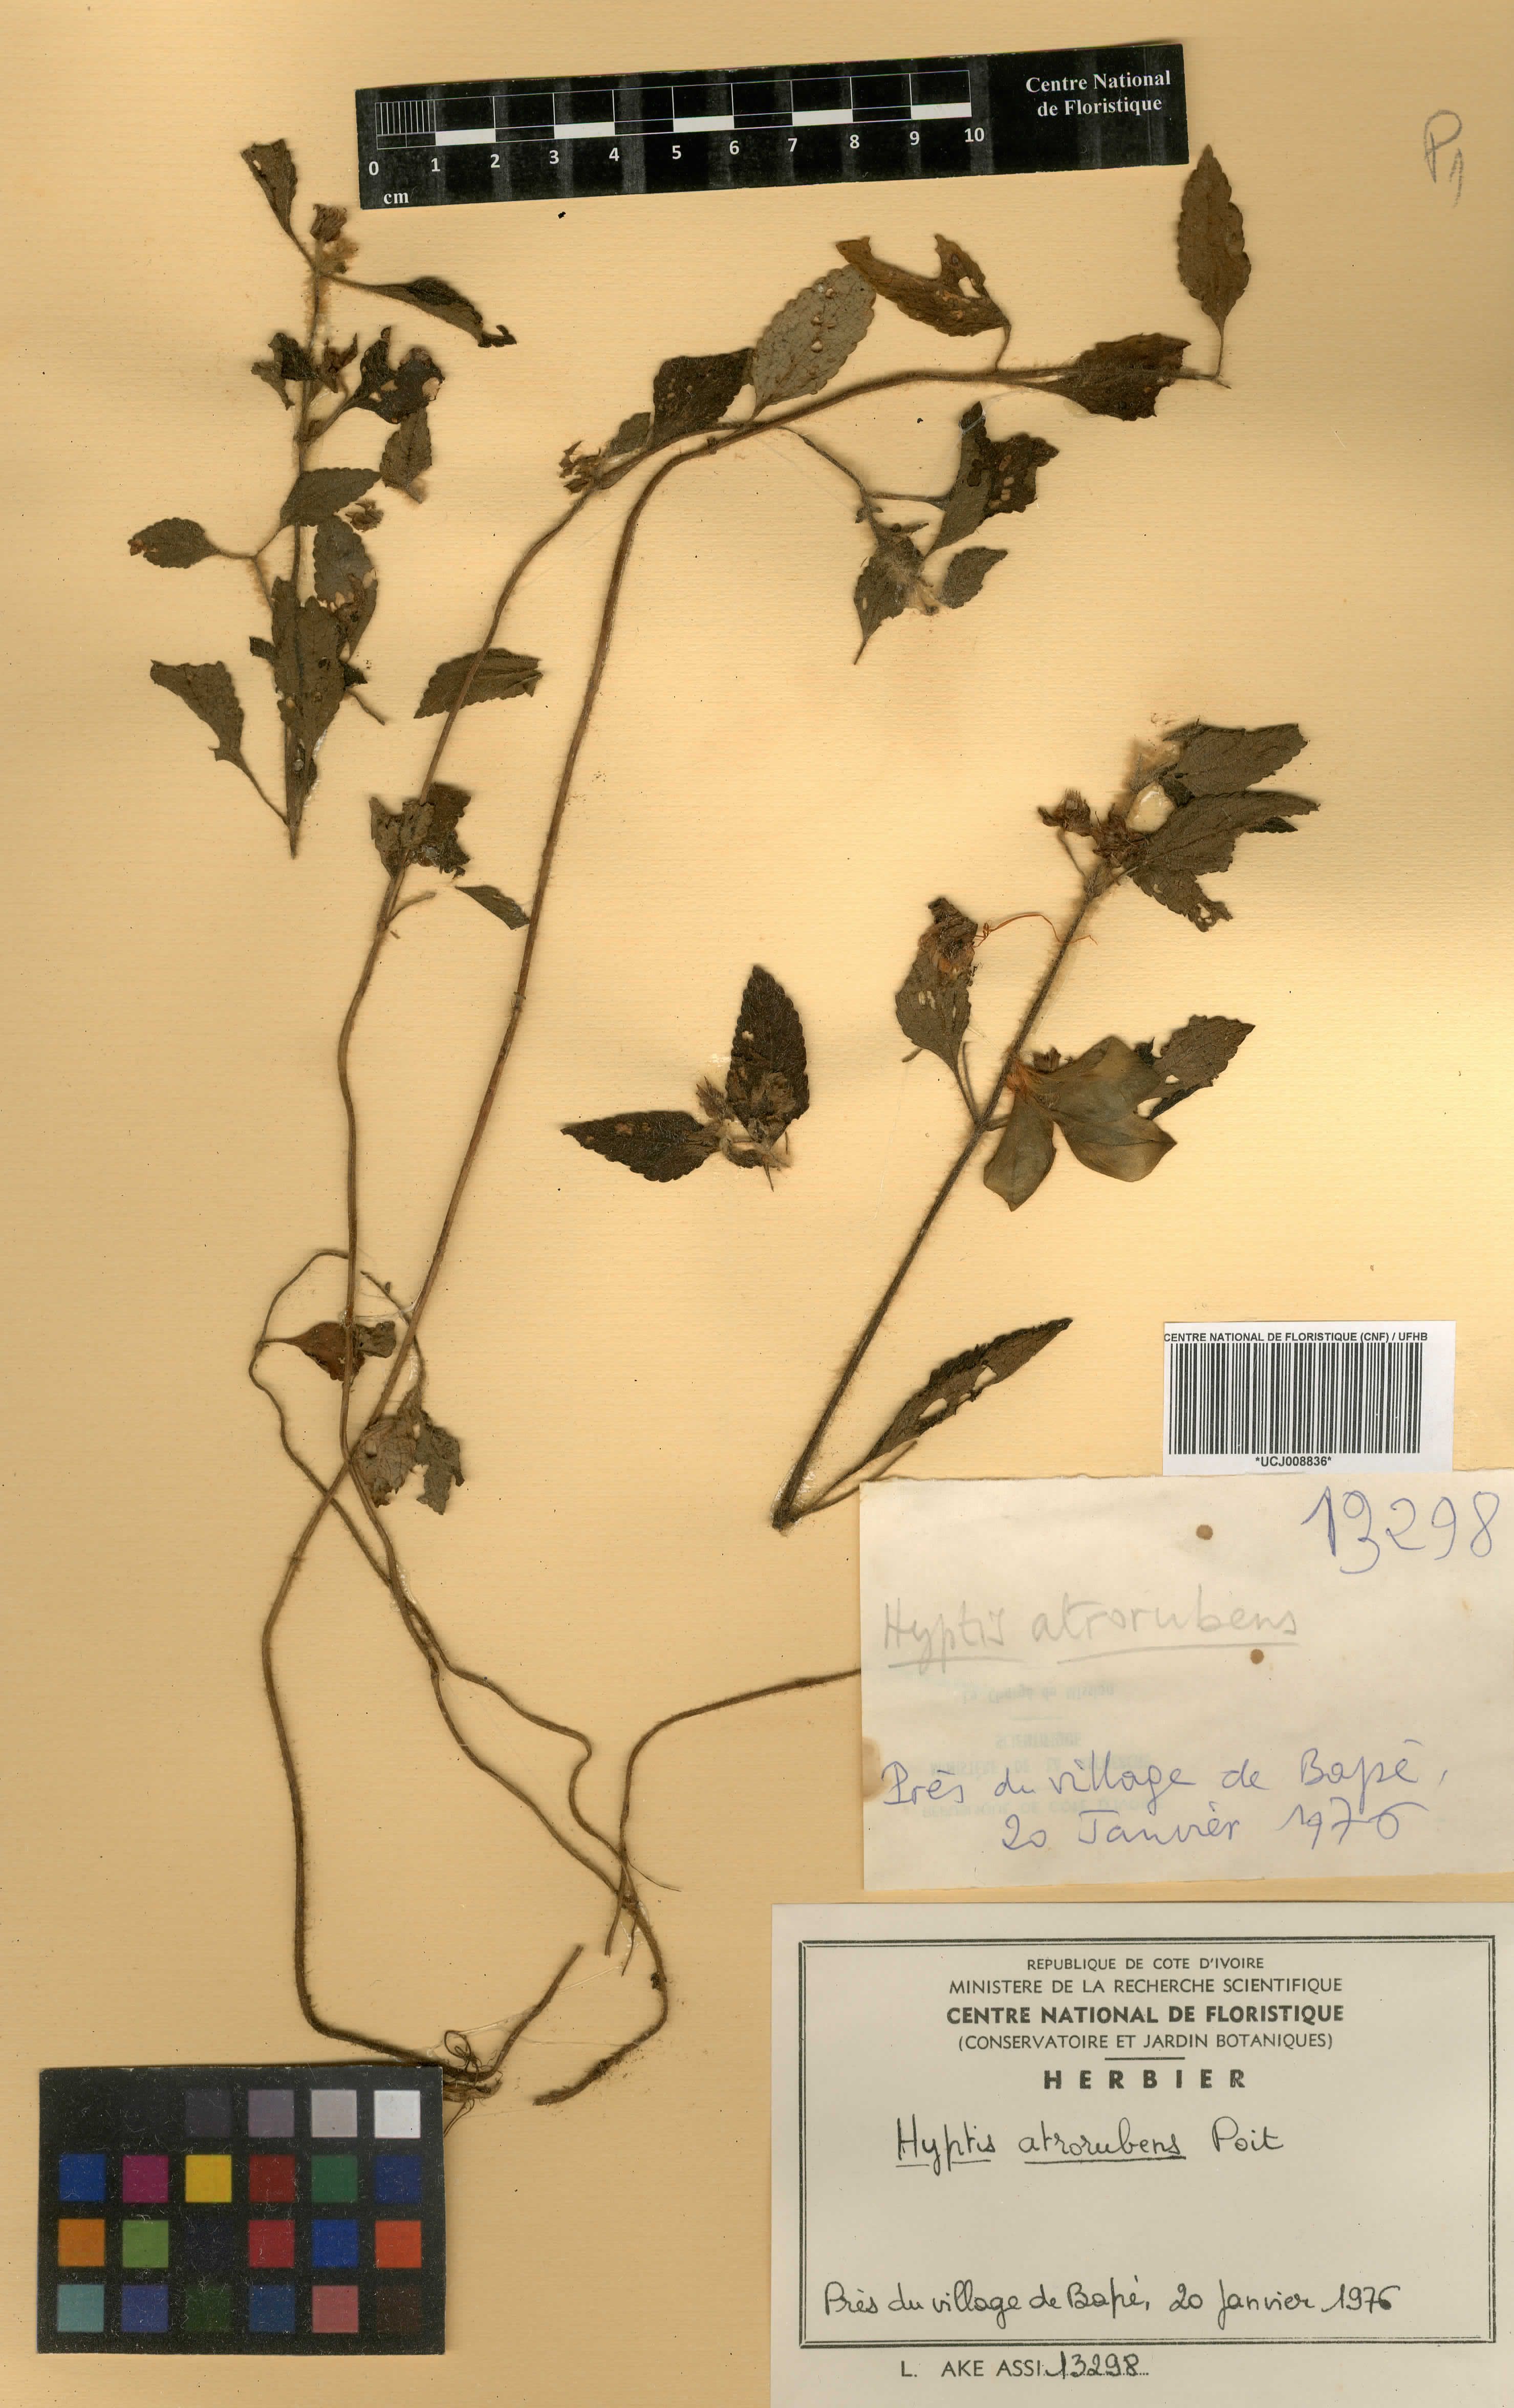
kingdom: Plantae
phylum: Tracheophyta
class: Magnoliopsida
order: Lamiales
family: Lamiaceae
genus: Hyptis
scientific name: Hyptis atrorubens
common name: Lanmant
